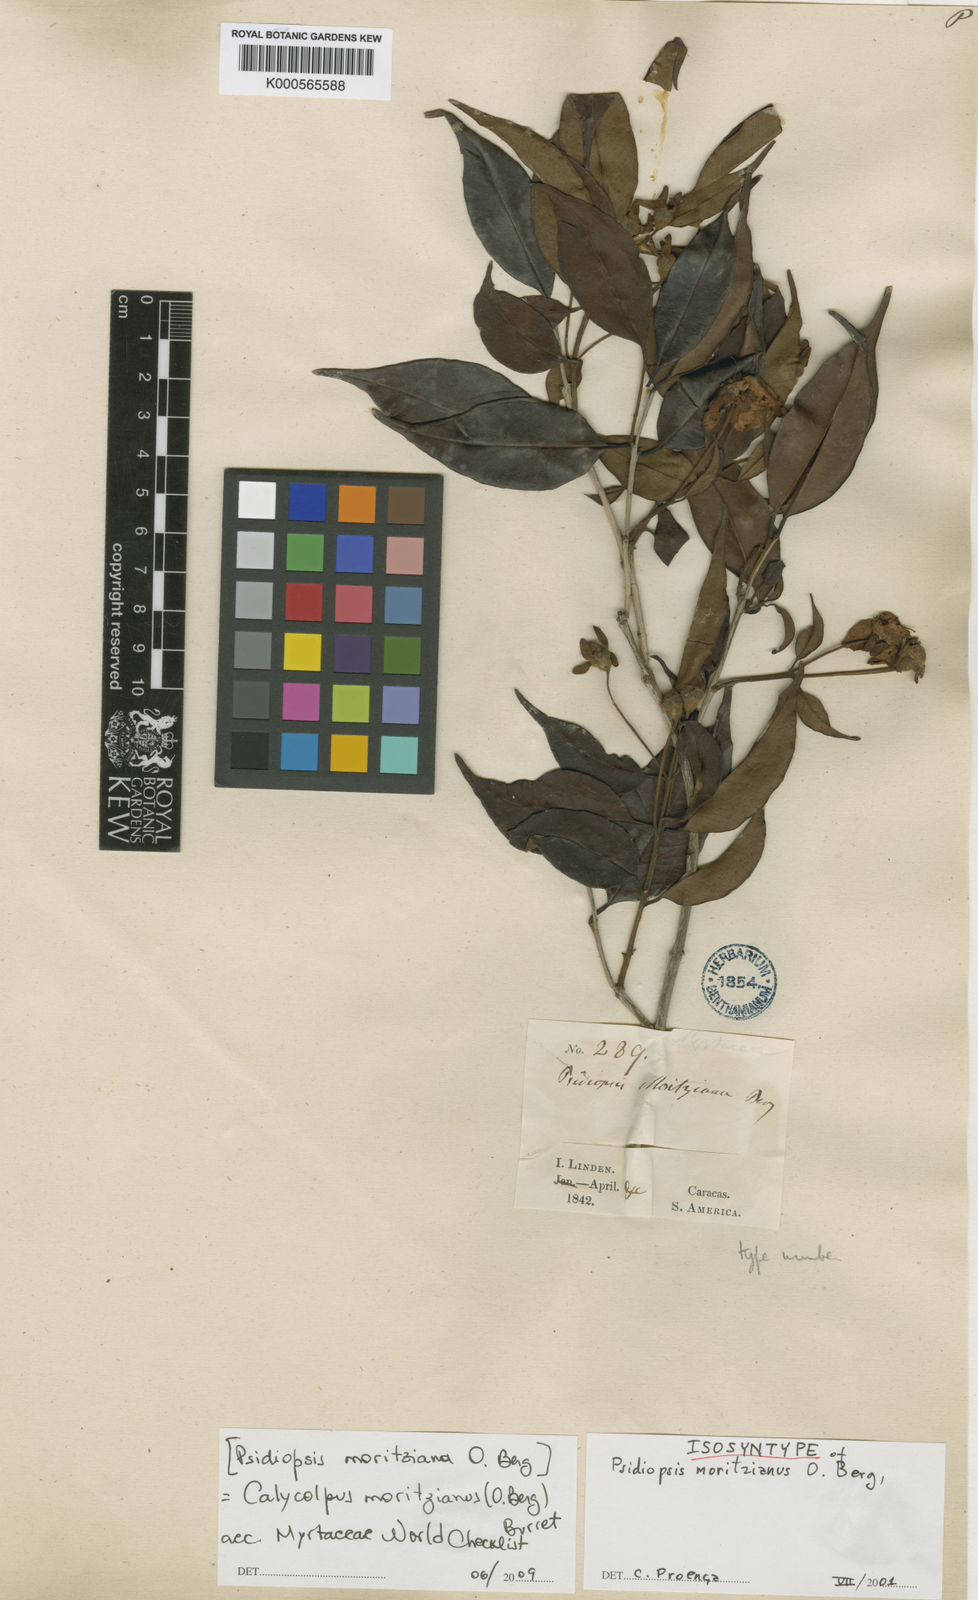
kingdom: Plantae
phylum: Tracheophyta
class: Magnoliopsida
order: Myrtales
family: Myrtaceae
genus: Calycolpus
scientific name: Calycolpus moritzianus
